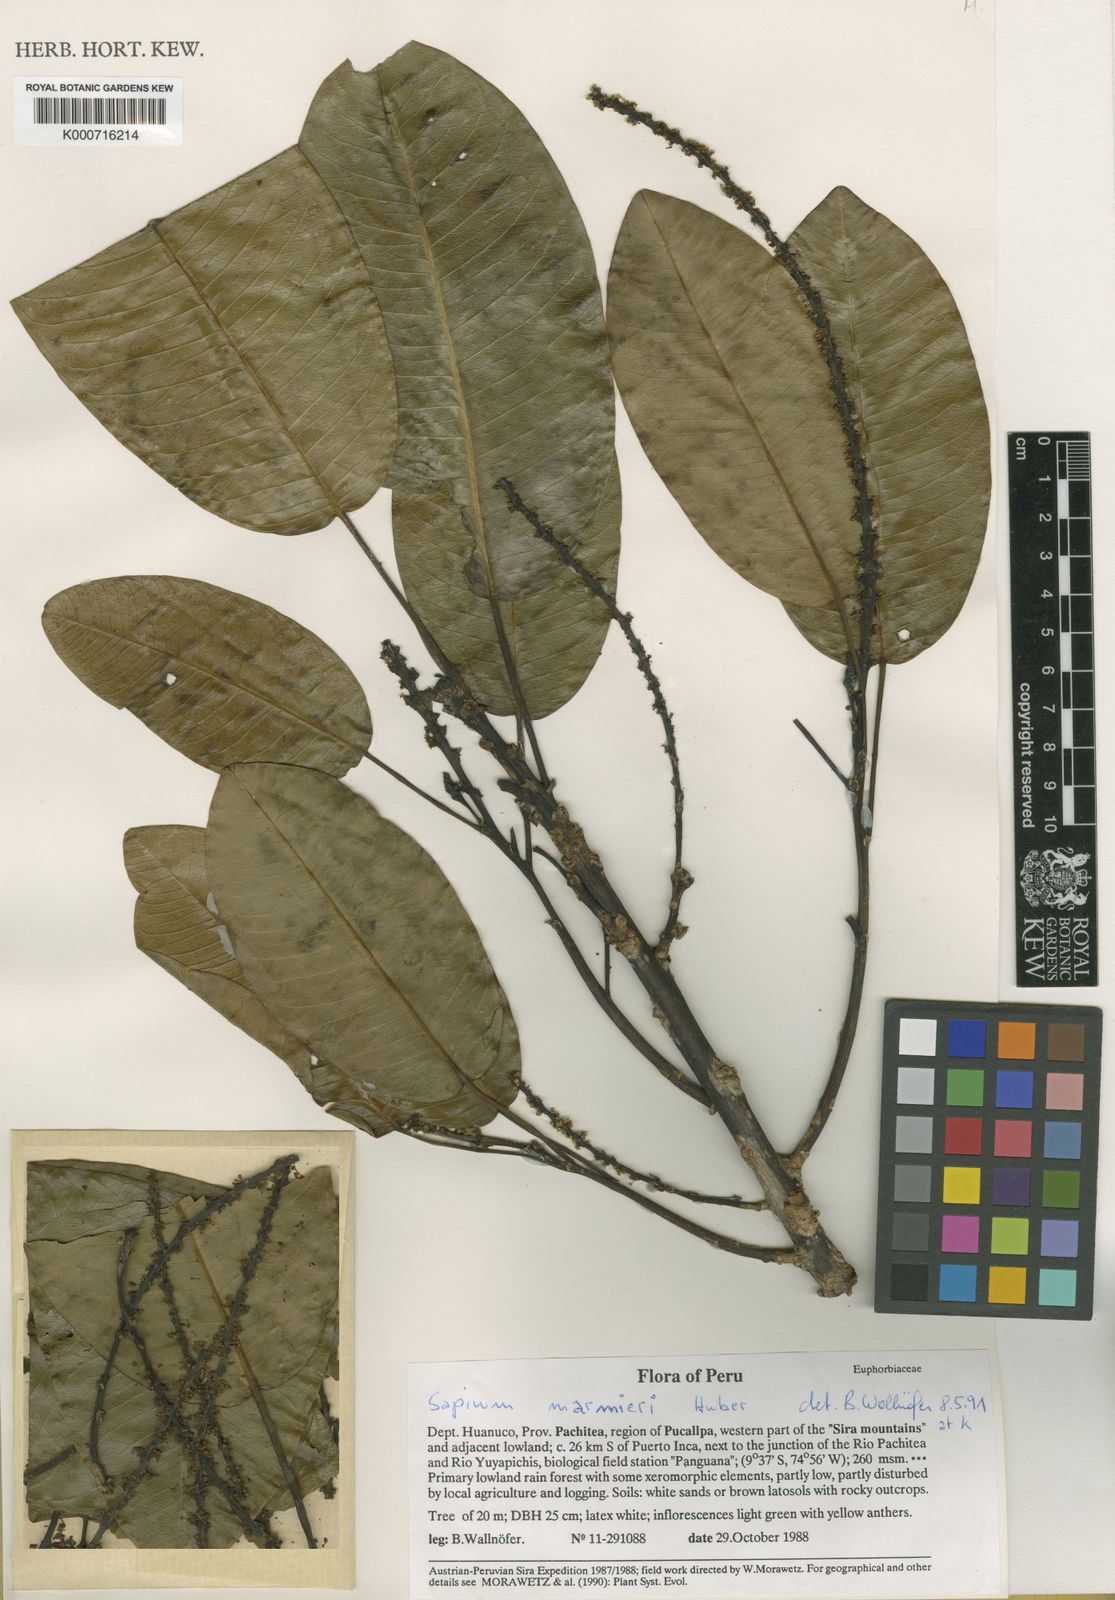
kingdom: Plantae
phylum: Tracheophyta
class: Magnoliopsida
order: Malpighiales
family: Euphorbiaceae
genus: Sapium
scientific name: Sapium marmieri
